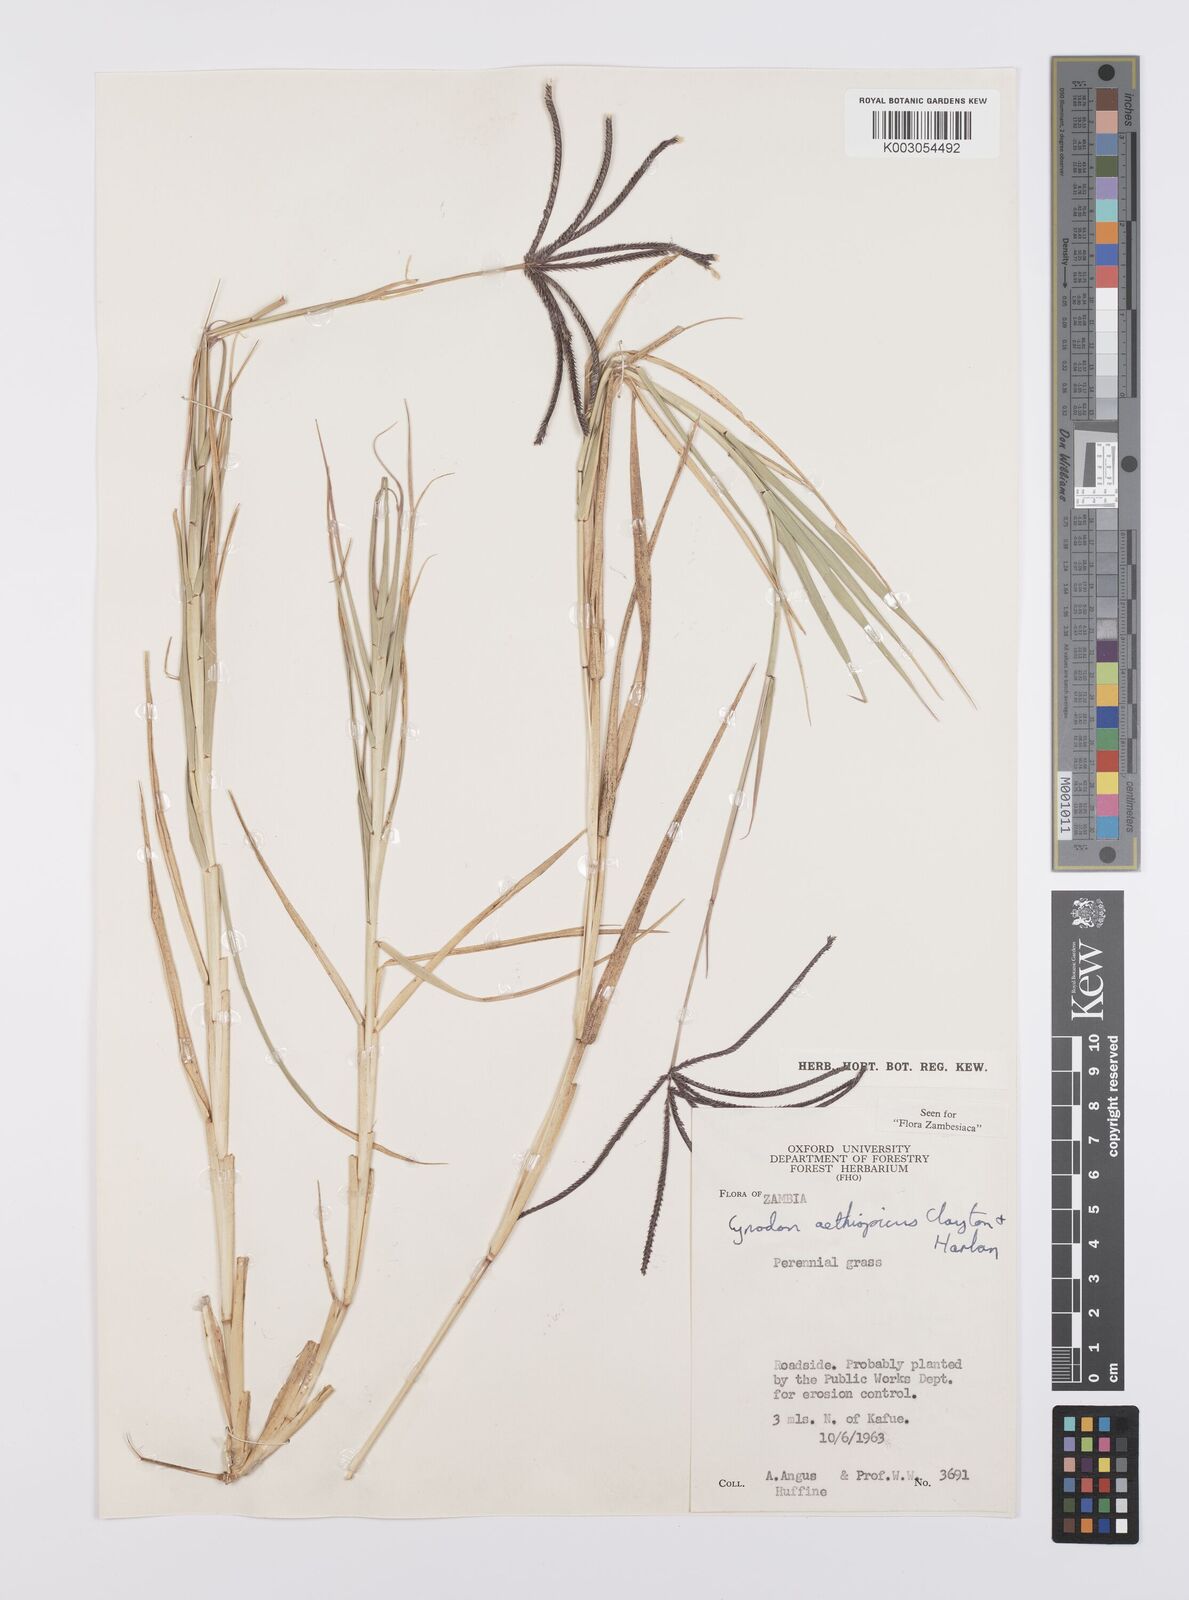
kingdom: Plantae
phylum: Tracheophyta
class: Liliopsida
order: Poales
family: Poaceae
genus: Cynodon
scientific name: Cynodon aethiopicus
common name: Ethiopian dogstooth grass
